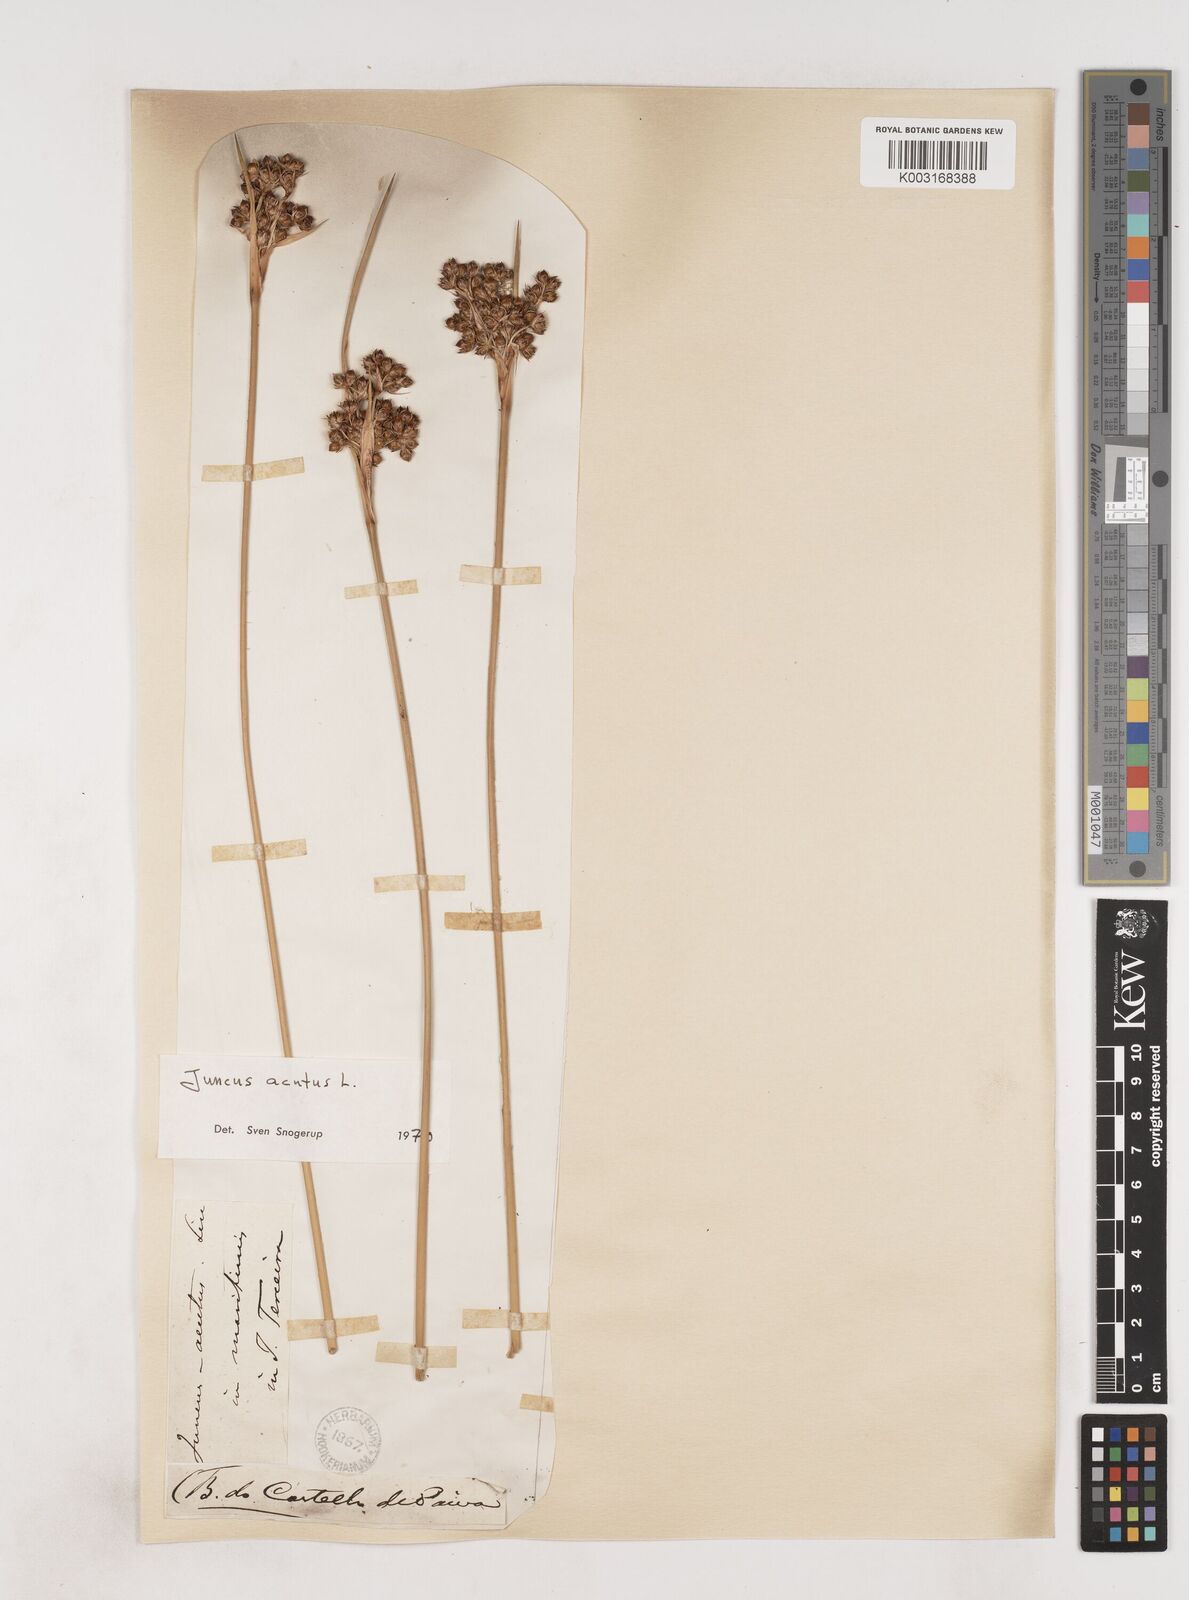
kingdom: Plantae
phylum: Tracheophyta
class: Liliopsida
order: Poales
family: Juncaceae
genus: Juncus
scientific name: Juncus acutus
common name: Sharp rush
